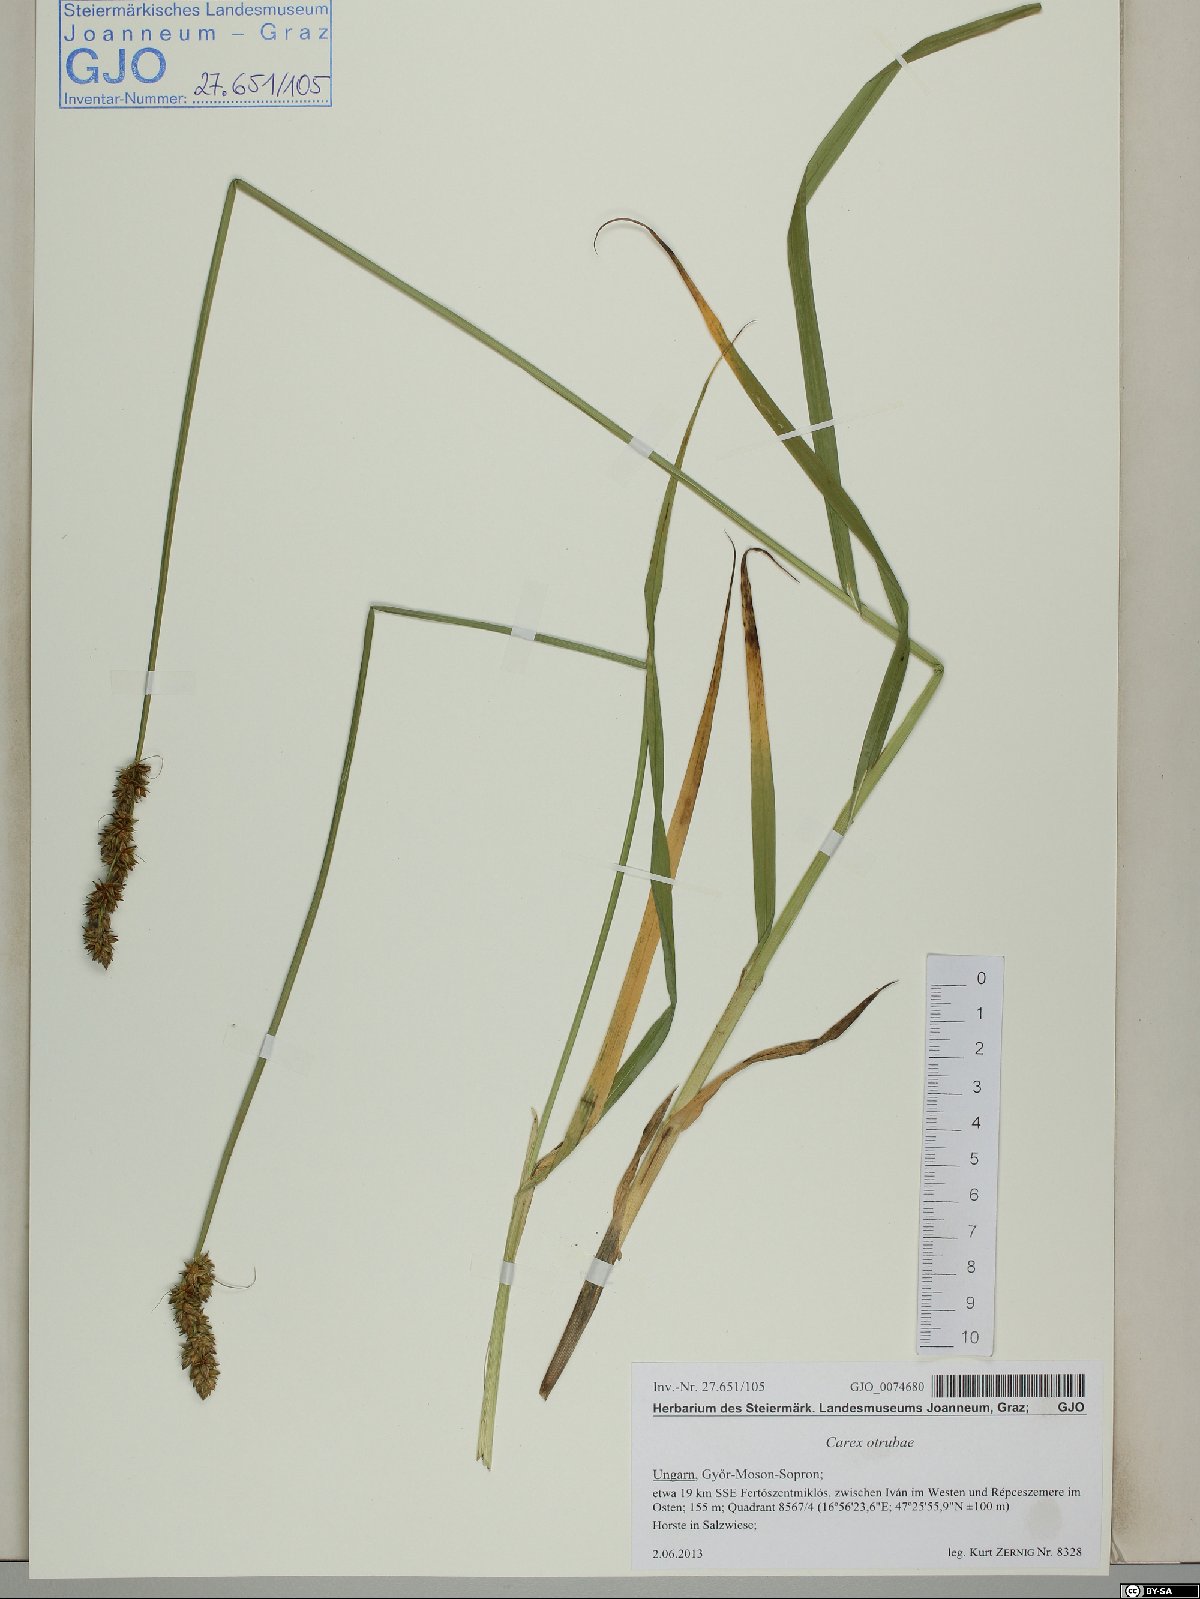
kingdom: Plantae
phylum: Tracheophyta
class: Liliopsida
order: Poales
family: Cyperaceae
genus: Carex
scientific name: Carex otrubae
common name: False fox-sedge
